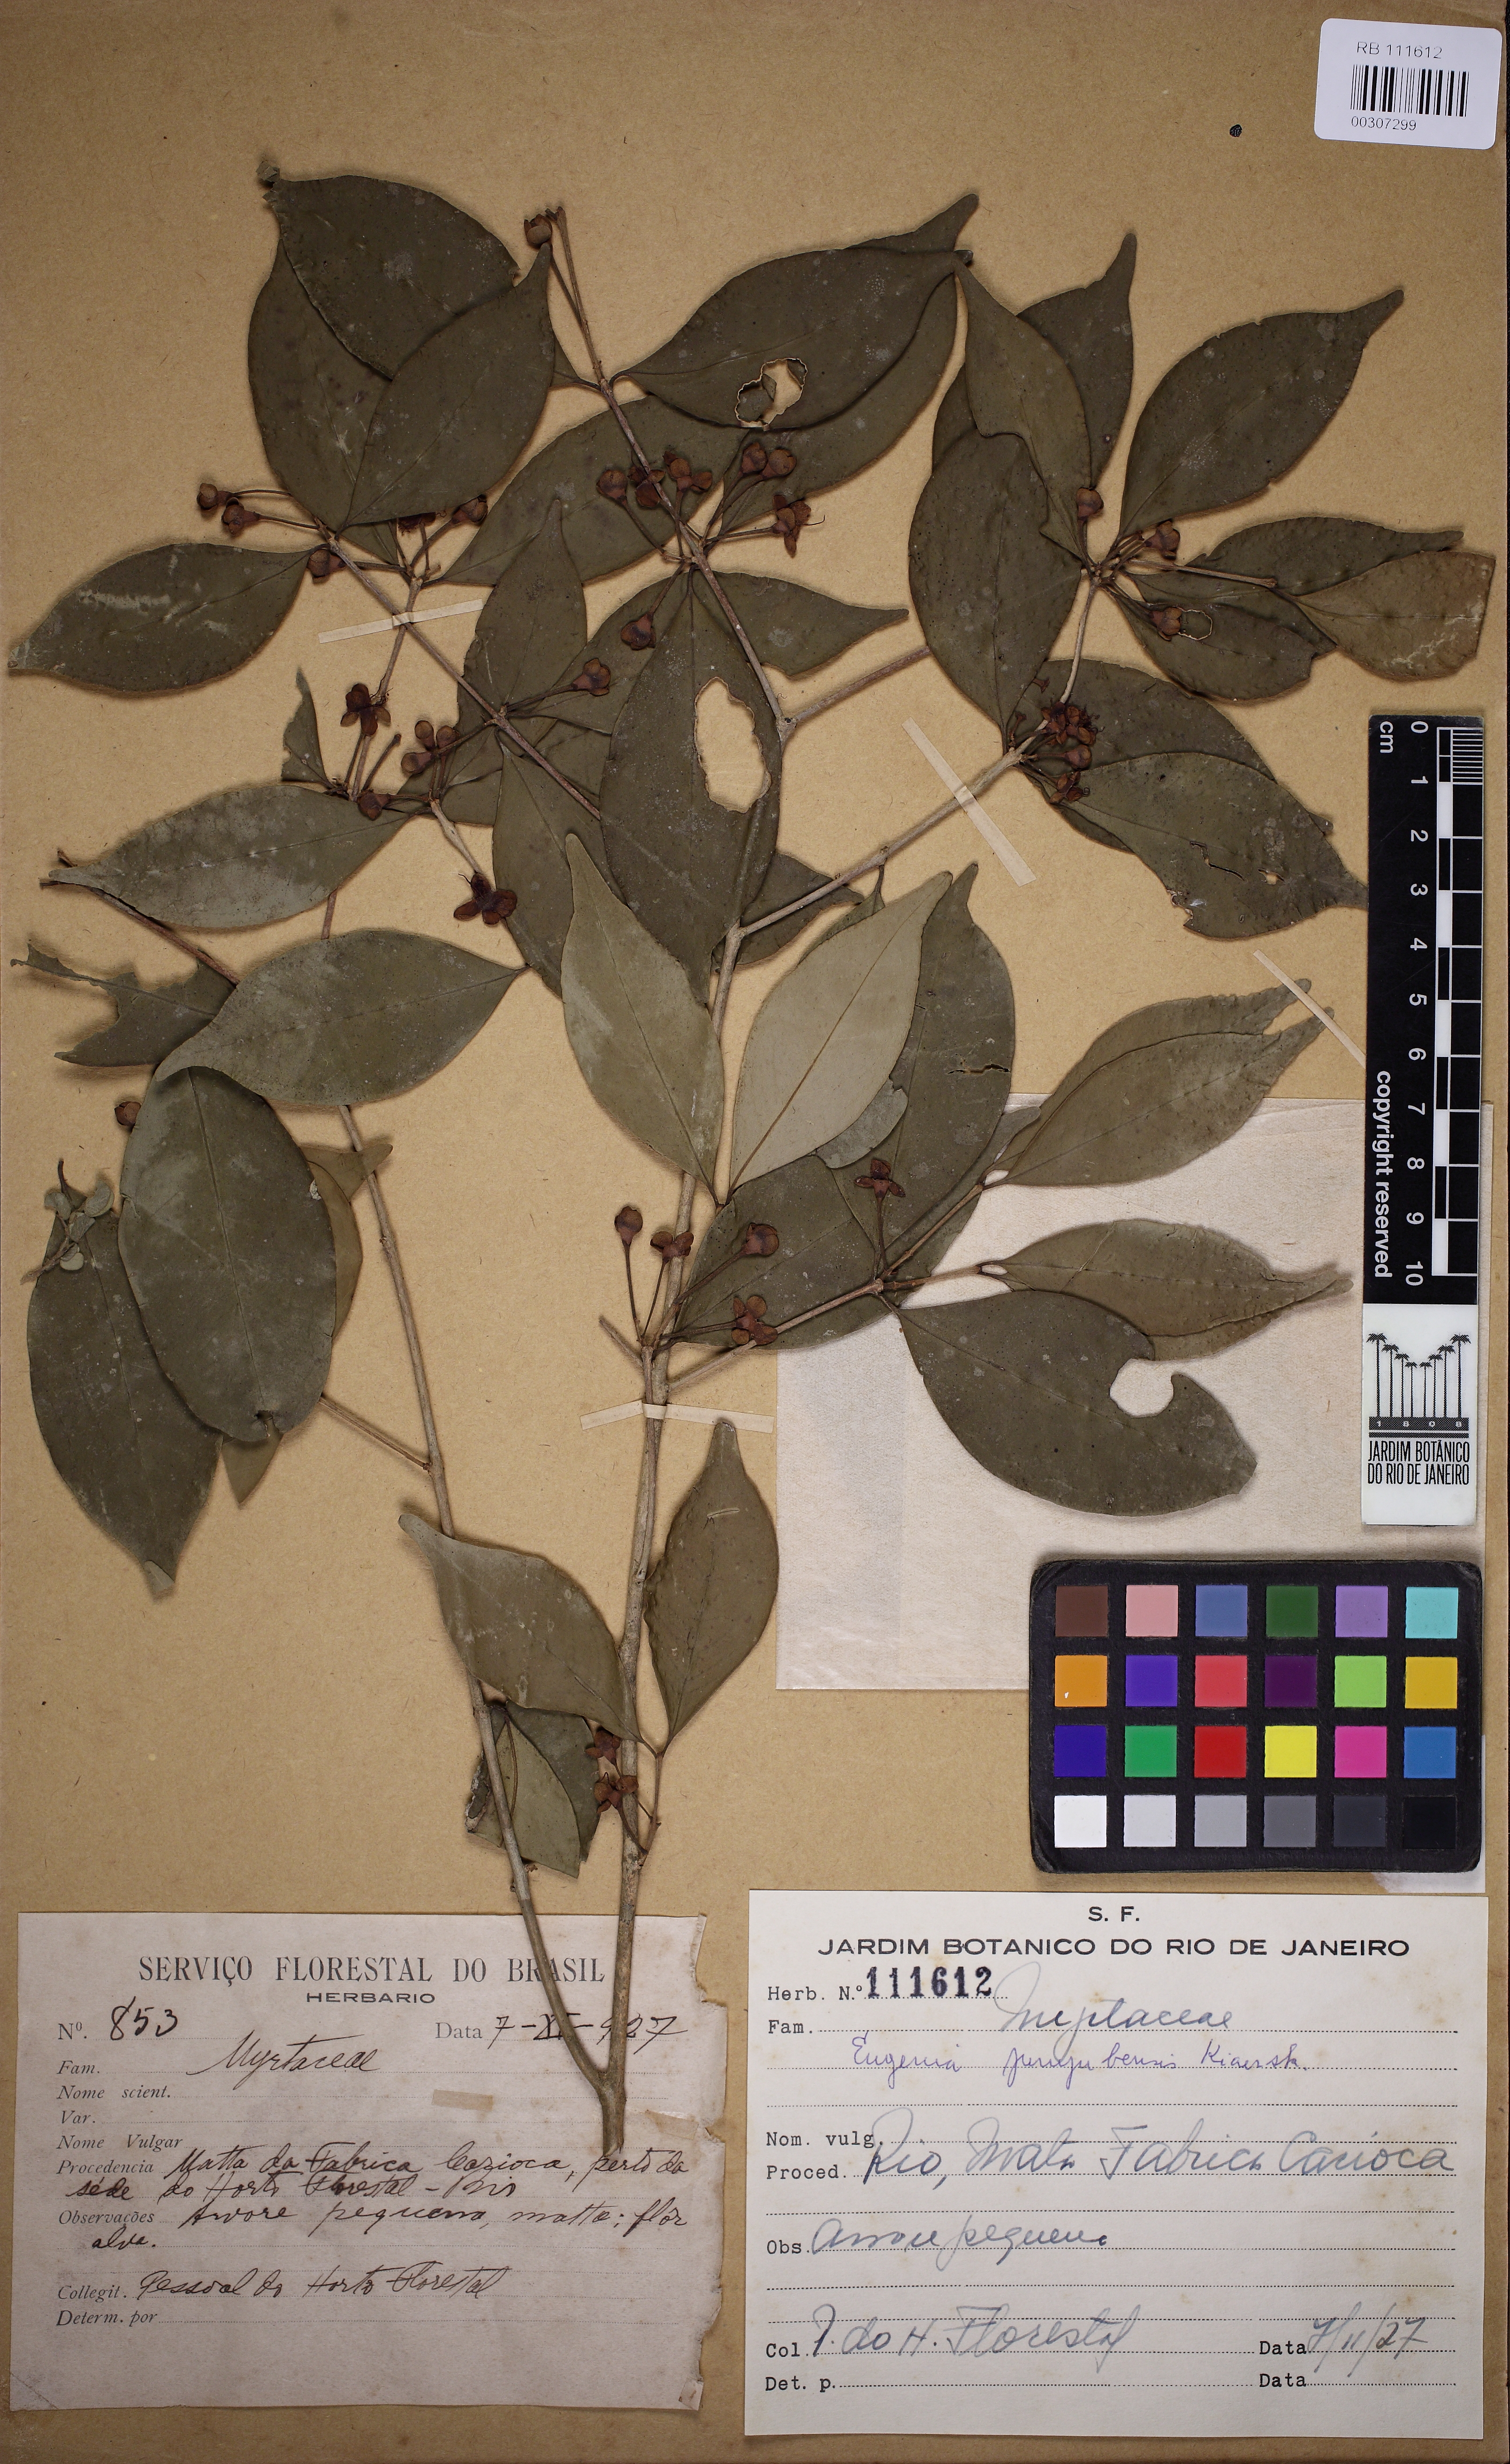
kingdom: Plantae
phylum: Tracheophyta
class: Magnoliopsida
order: Myrtales
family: Myrtaceae
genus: Eugenia
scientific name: Eugenia prasina
